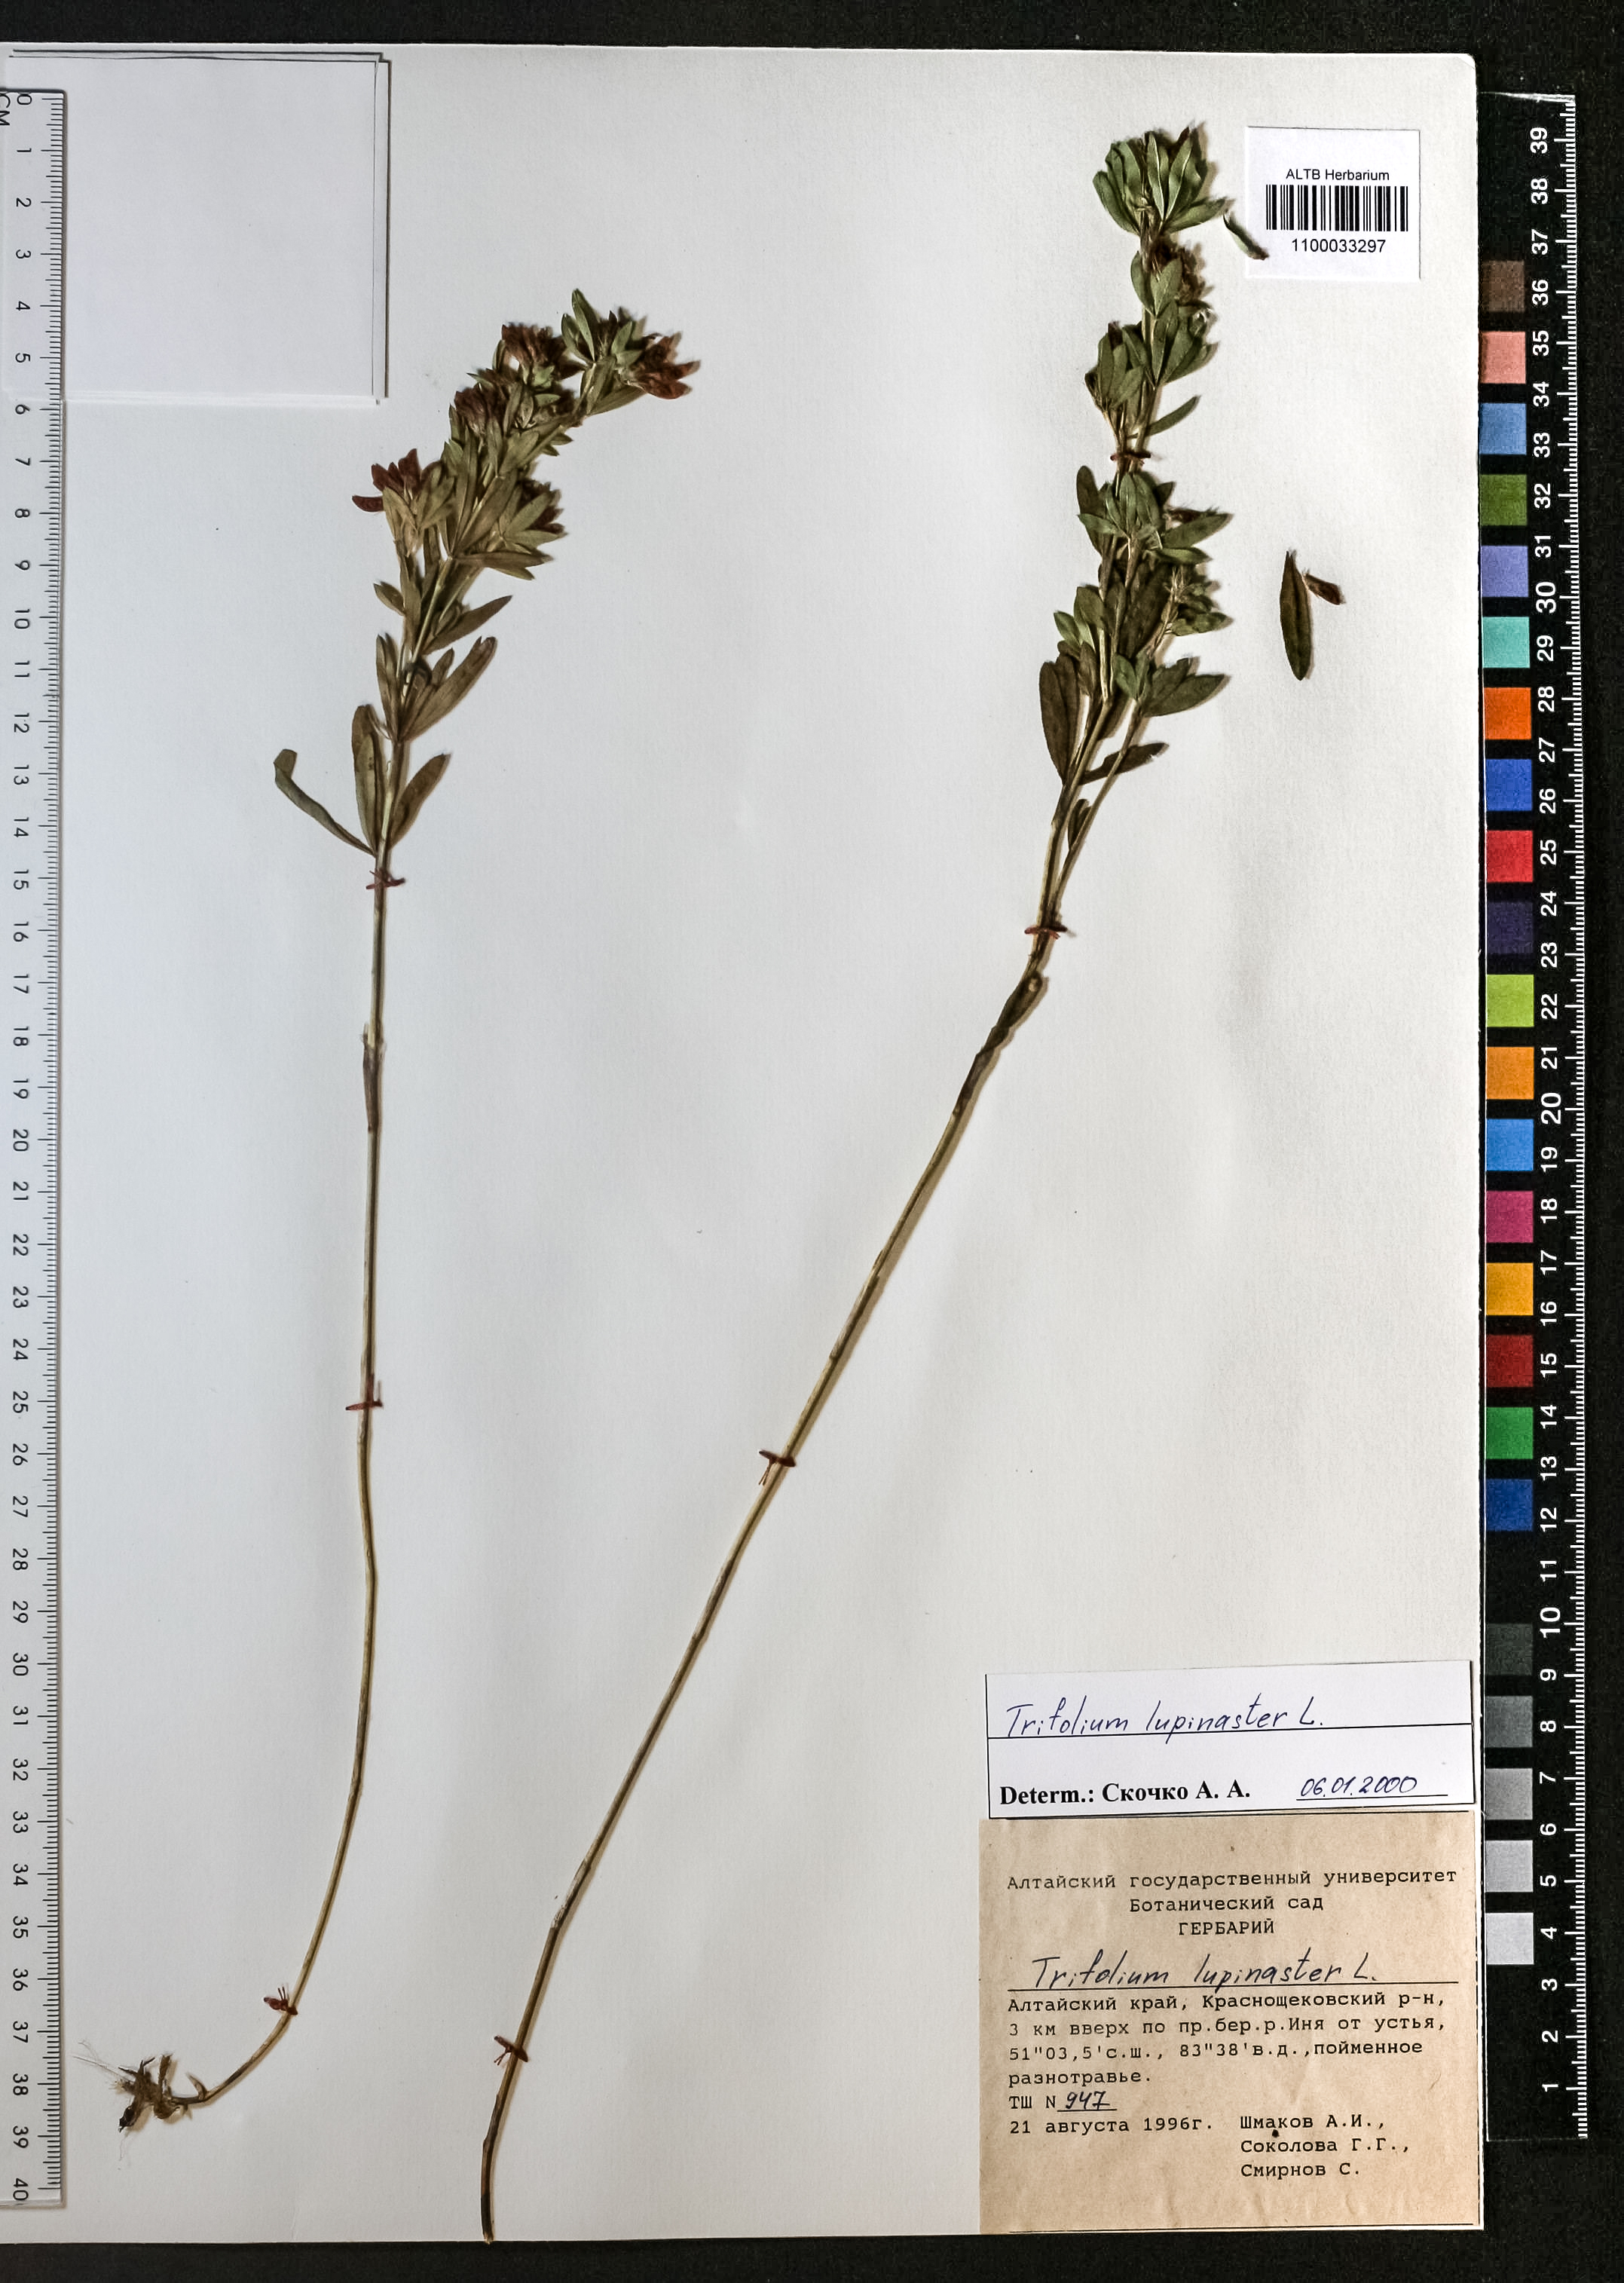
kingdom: Plantae
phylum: Tracheophyta
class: Magnoliopsida
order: Fabales
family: Fabaceae
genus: Trifolium
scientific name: Trifolium lupinaster
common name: Lupine clover
